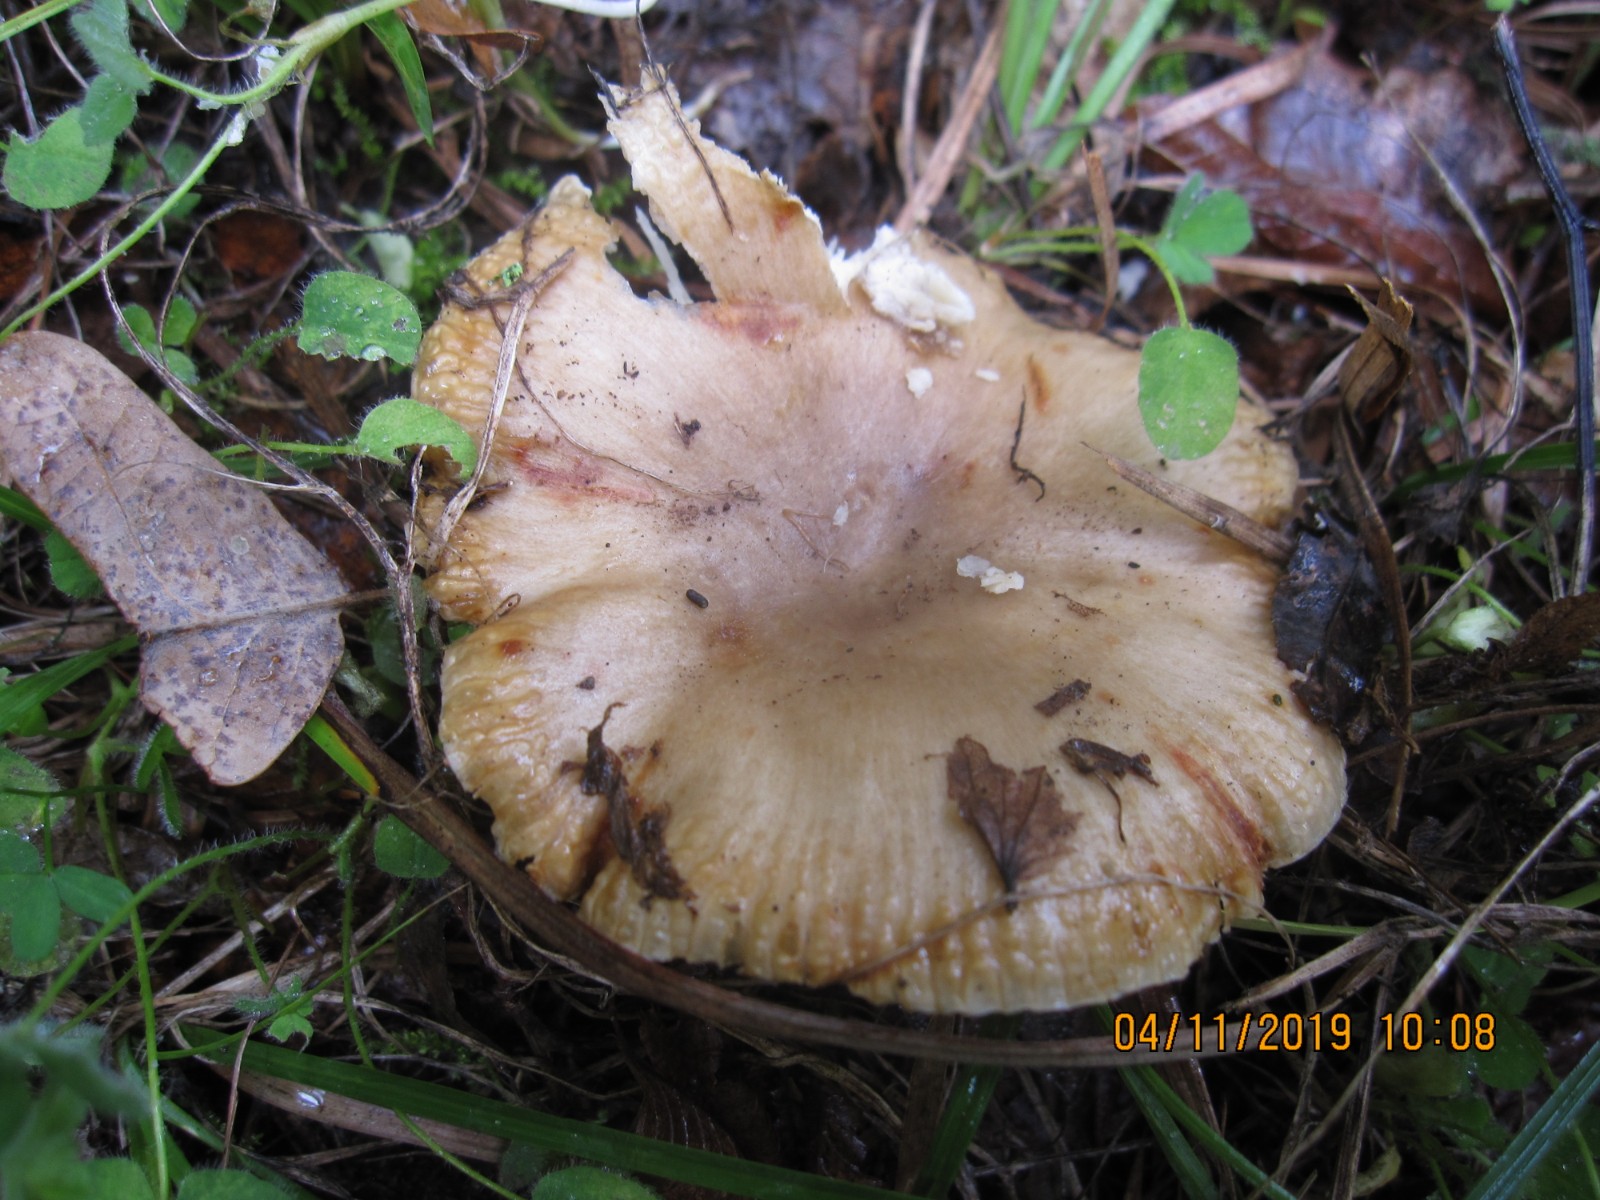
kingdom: Fungi
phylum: Basidiomycota
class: Agaricomycetes
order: Russulales
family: Russulaceae
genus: Russula
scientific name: Russula recondita
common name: mild kam-skørhat
